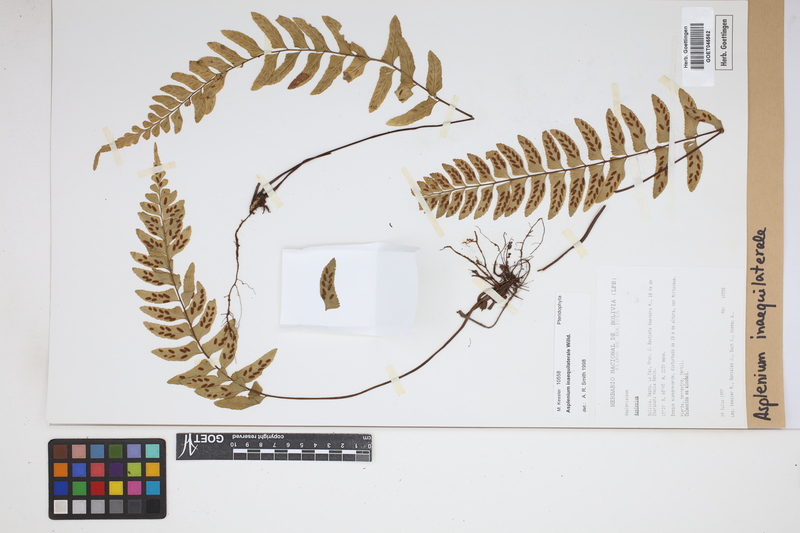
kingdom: Plantae
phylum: Tracheophyta
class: Polypodiopsida
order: Polypodiales
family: Aspleniaceae
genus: Asplenium
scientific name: Asplenium inaequilaterale
